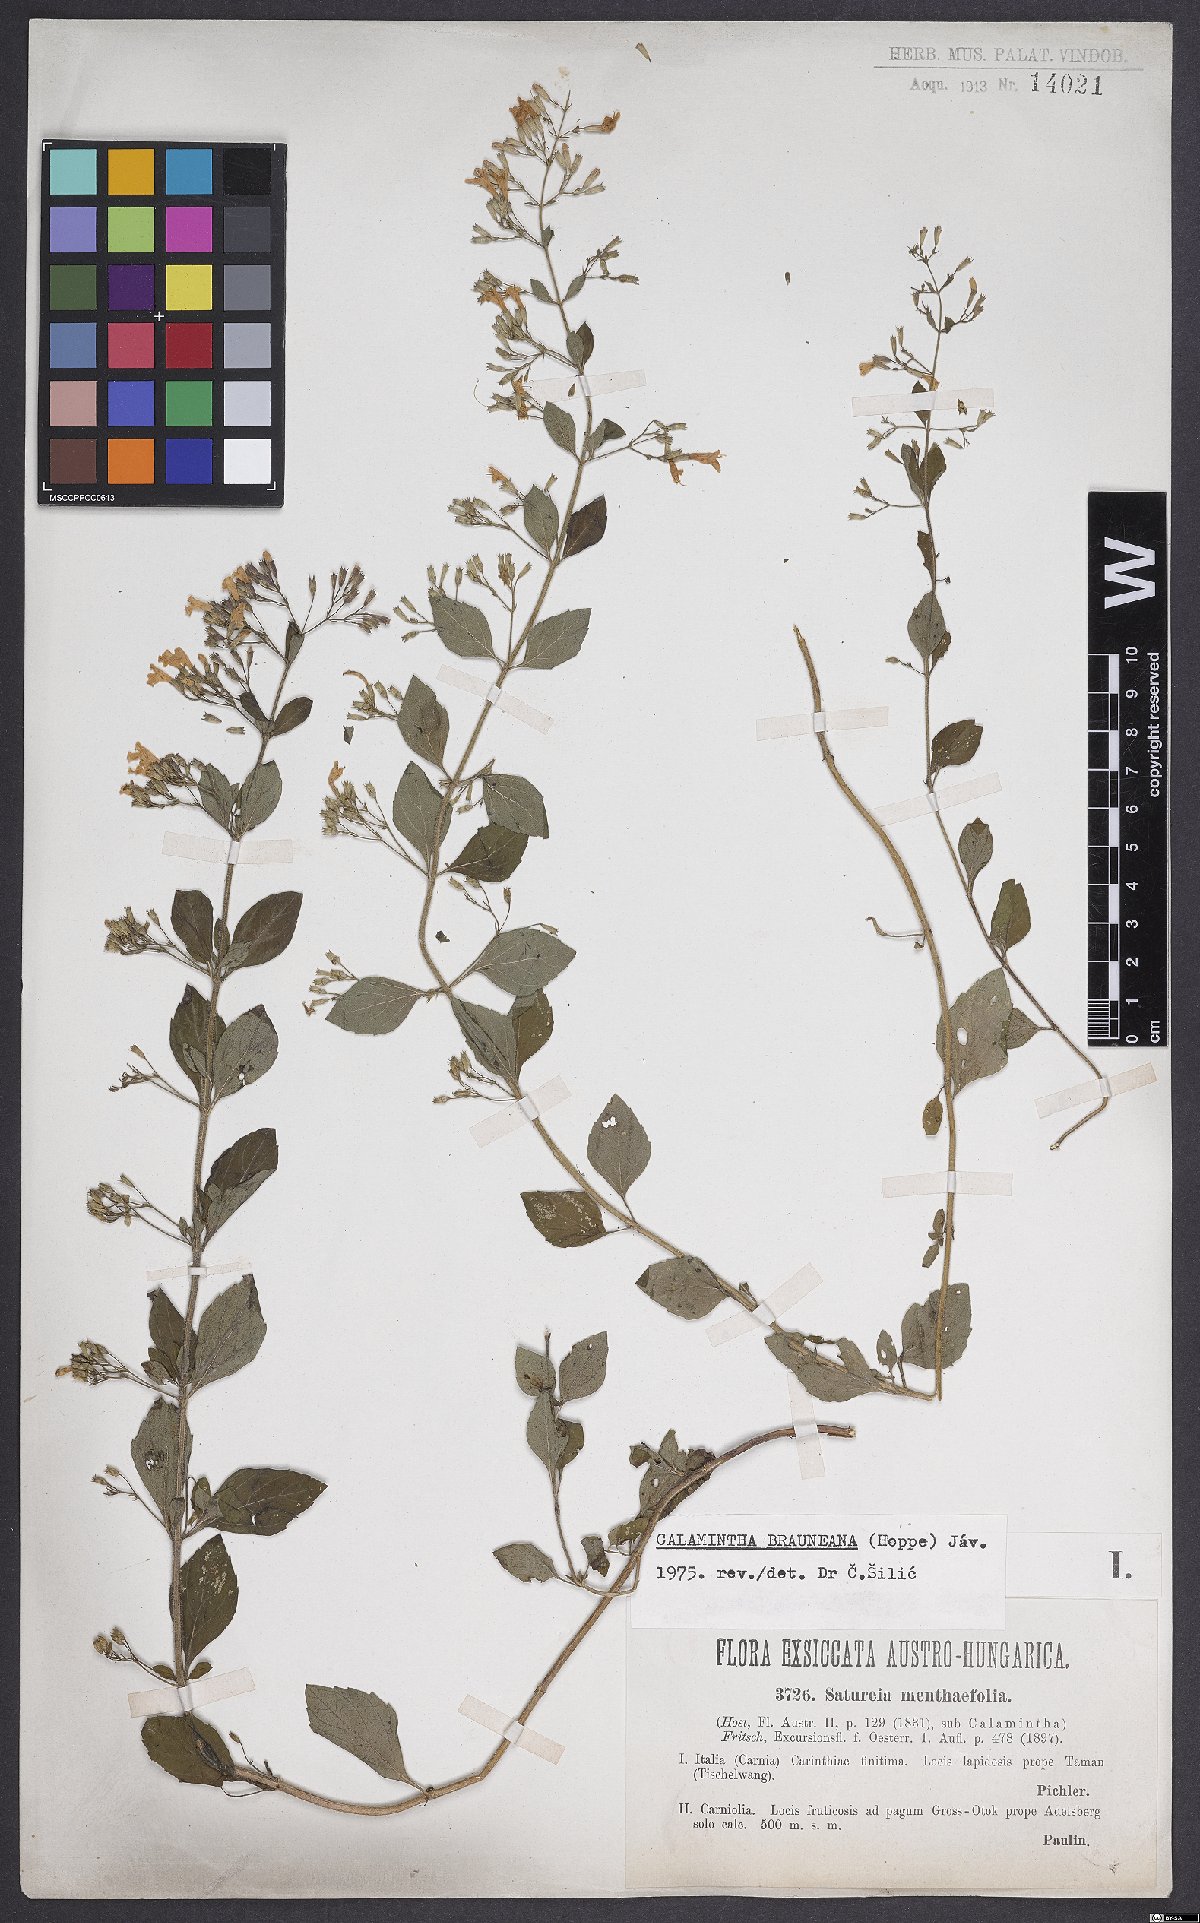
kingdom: Plantae
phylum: Tracheophyta
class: Magnoliopsida
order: Lamiales
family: Lamiaceae
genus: Clinopodium
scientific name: Clinopodium nepeta
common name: Lesser calamint
